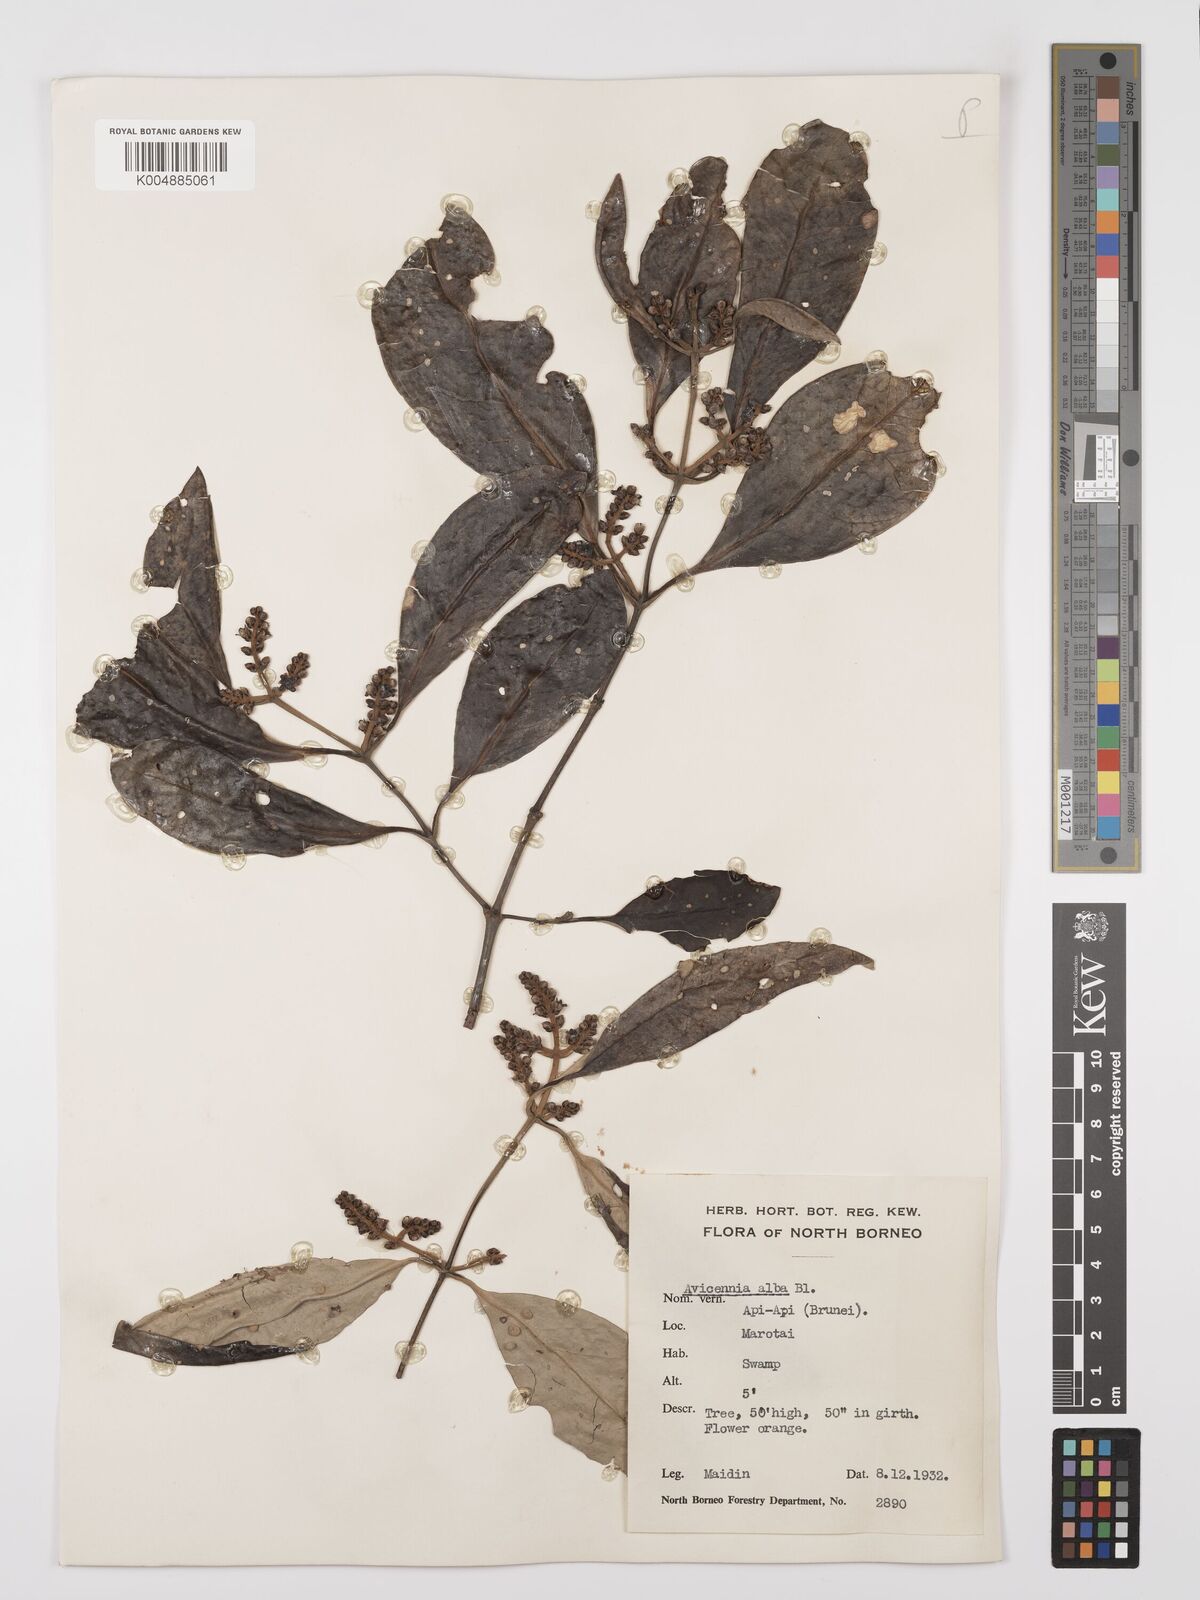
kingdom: Plantae
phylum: Tracheophyta
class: Magnoliopsida
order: Lamiales
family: Acanthaceae
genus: Avicennia
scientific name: Avicennia alba
